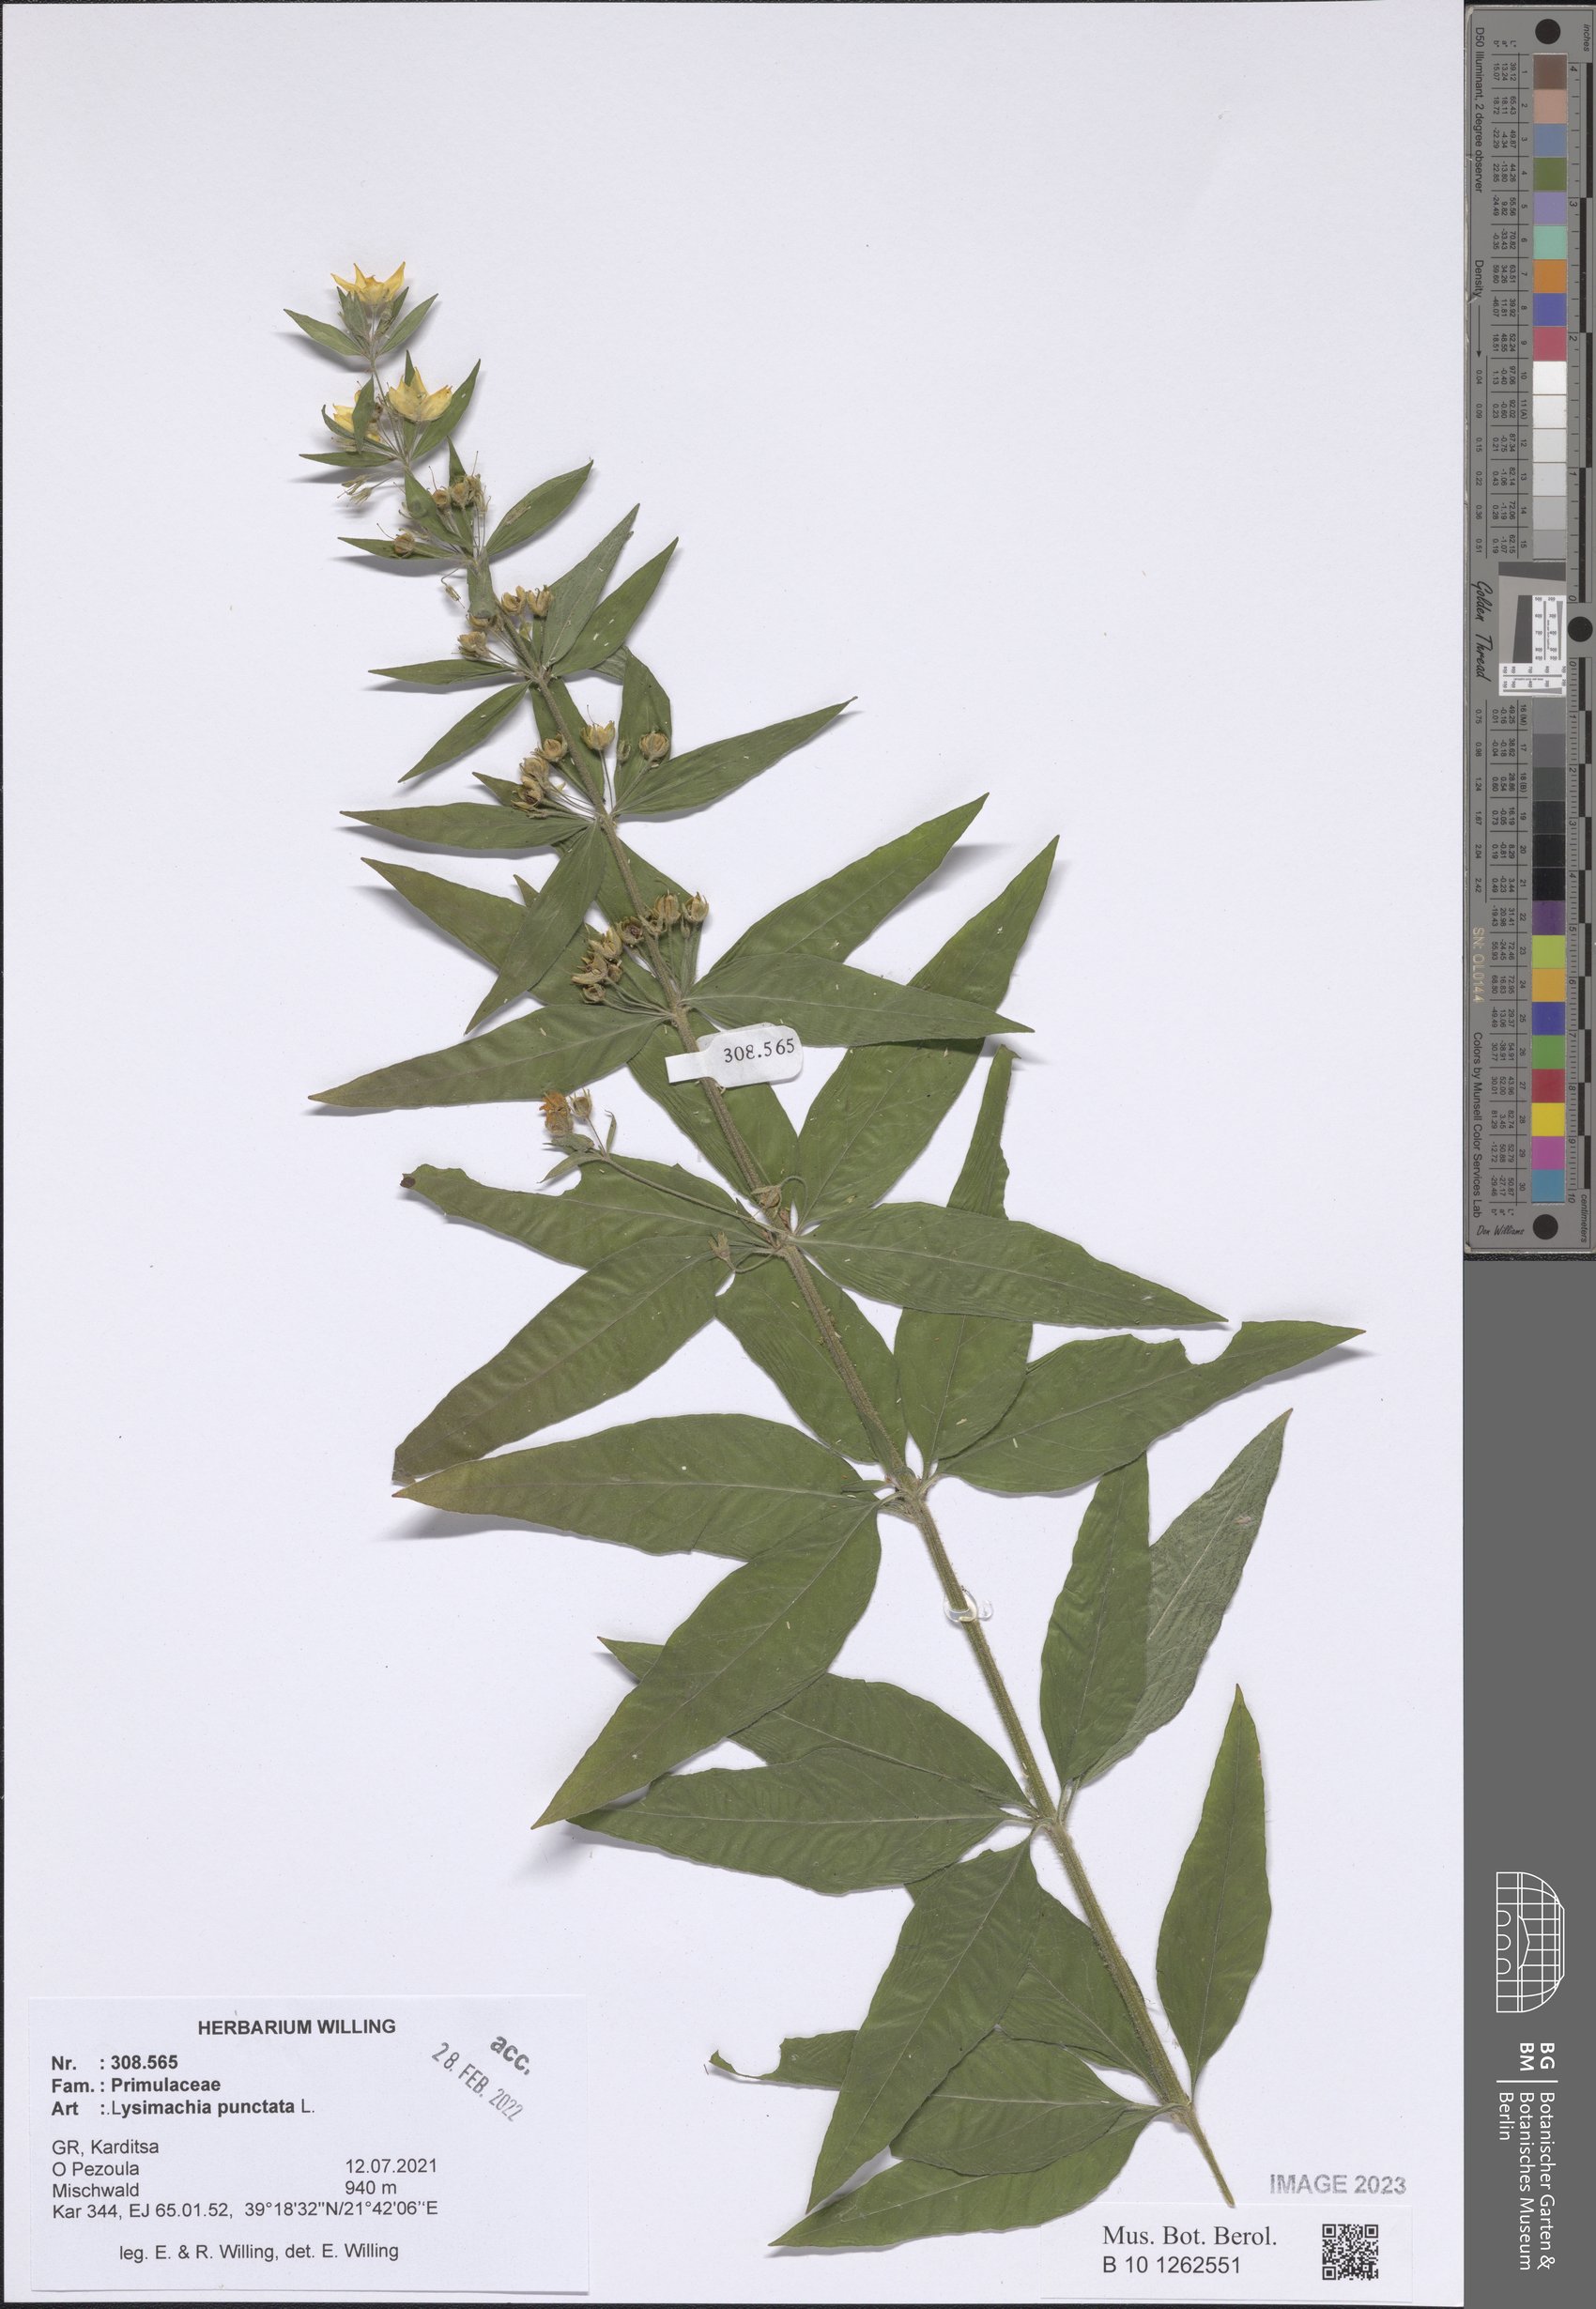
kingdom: Plantae
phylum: Tracheophyta
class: Magnoliopsida
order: Ericales
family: Primulaceae
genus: Lysimachia
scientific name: Lysimachia punctata
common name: Dotted loosestrife
